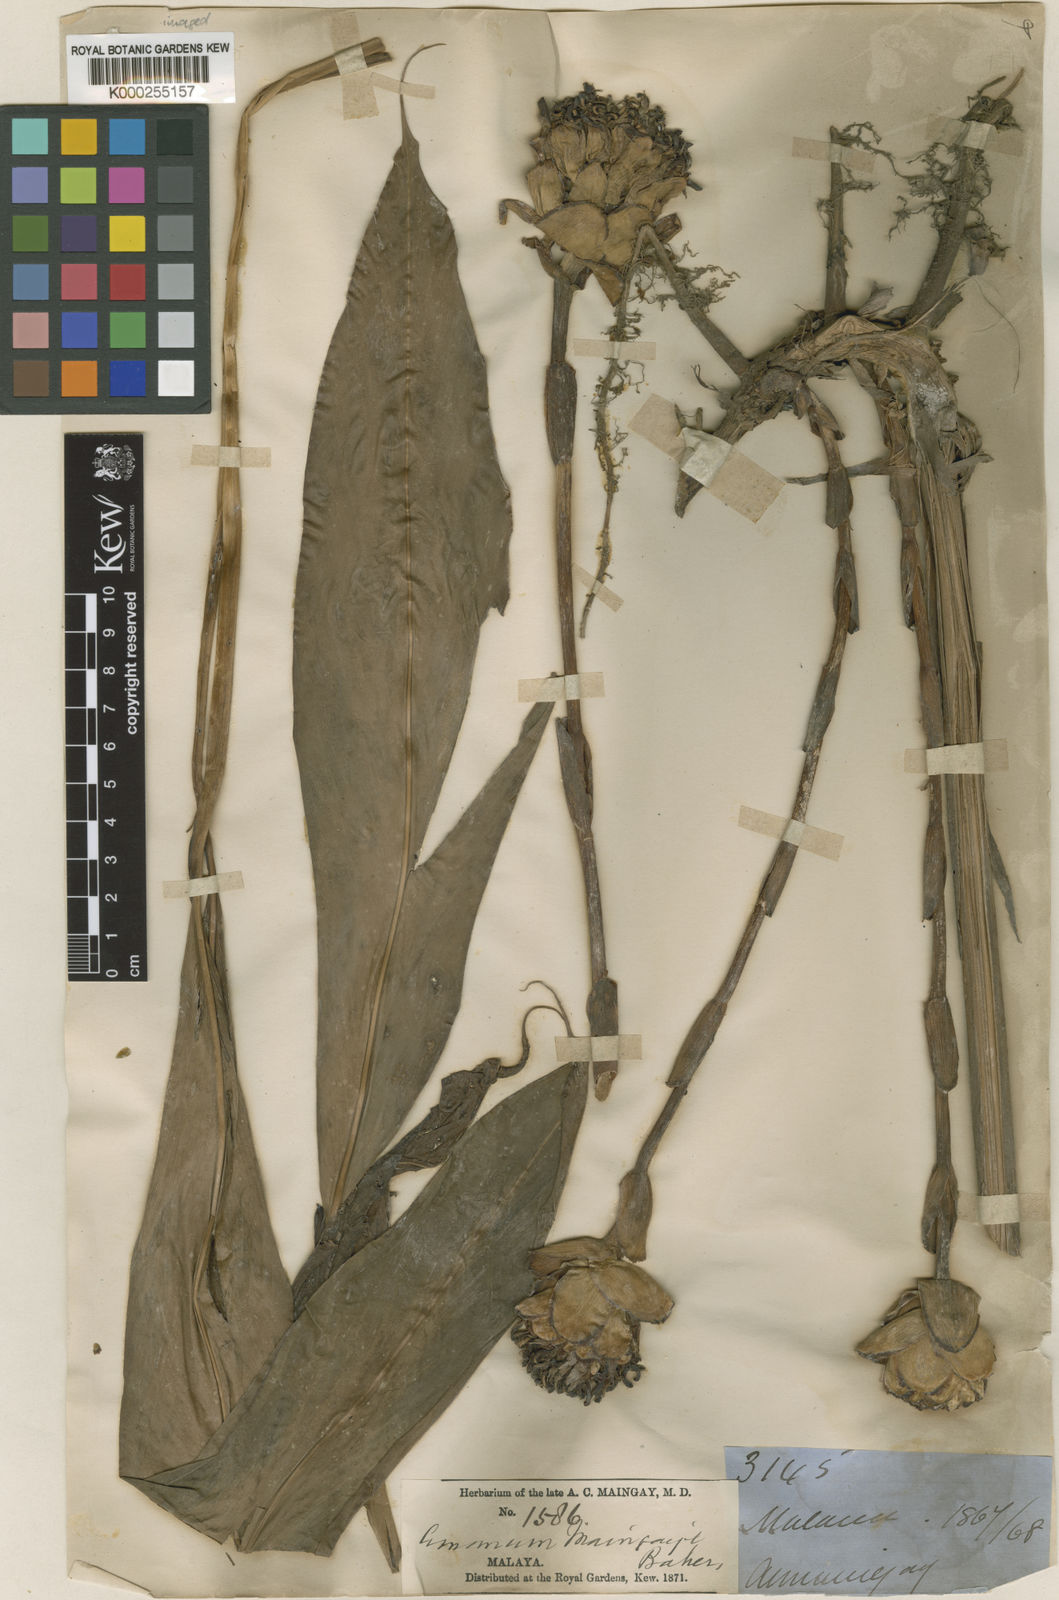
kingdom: Plantae
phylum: Tracheophyta
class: Liliopsida
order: Zingiberales
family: Zingiberaceae
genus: Etlingera
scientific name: Etlingera maingayi
